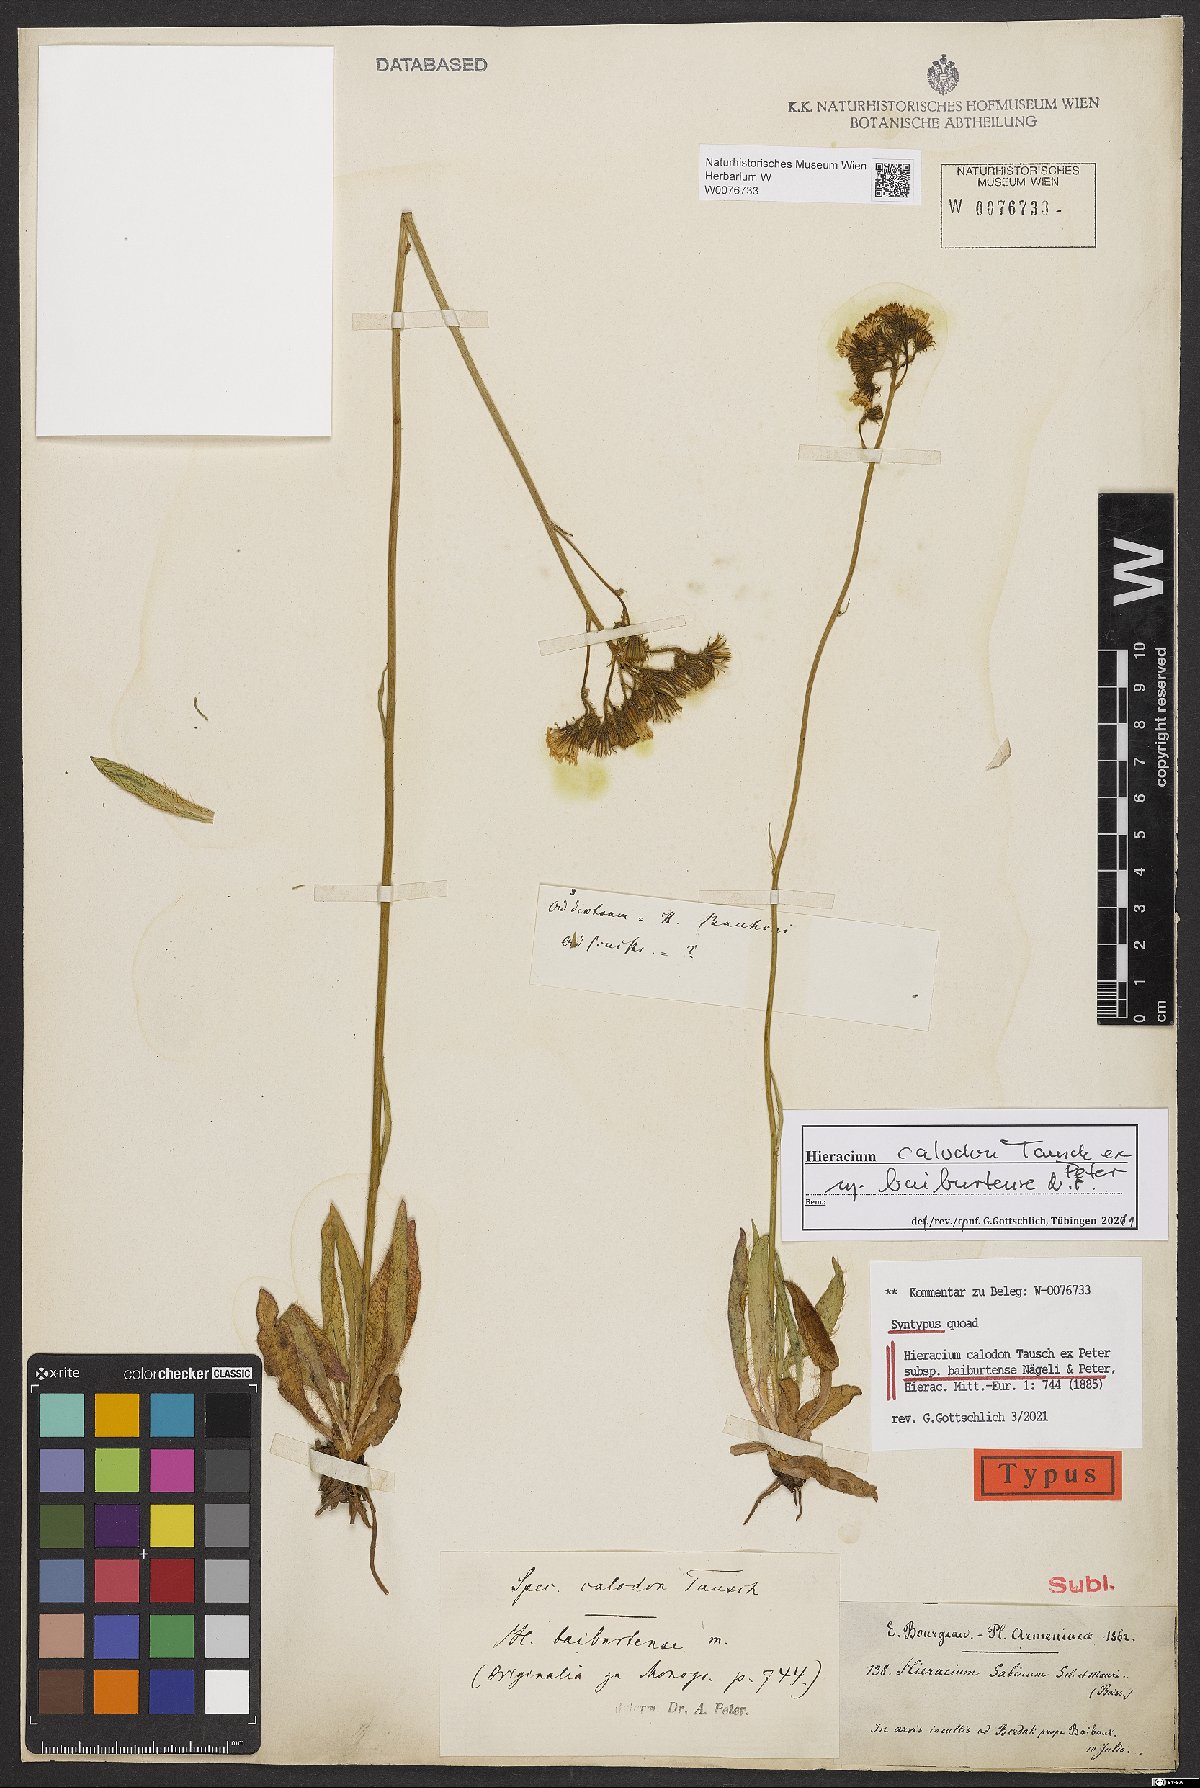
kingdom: Plantae
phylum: Tracheophyta
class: Magnoliopsida
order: Asterales
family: Asteraceae
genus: Pilosella
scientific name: Pilosella
